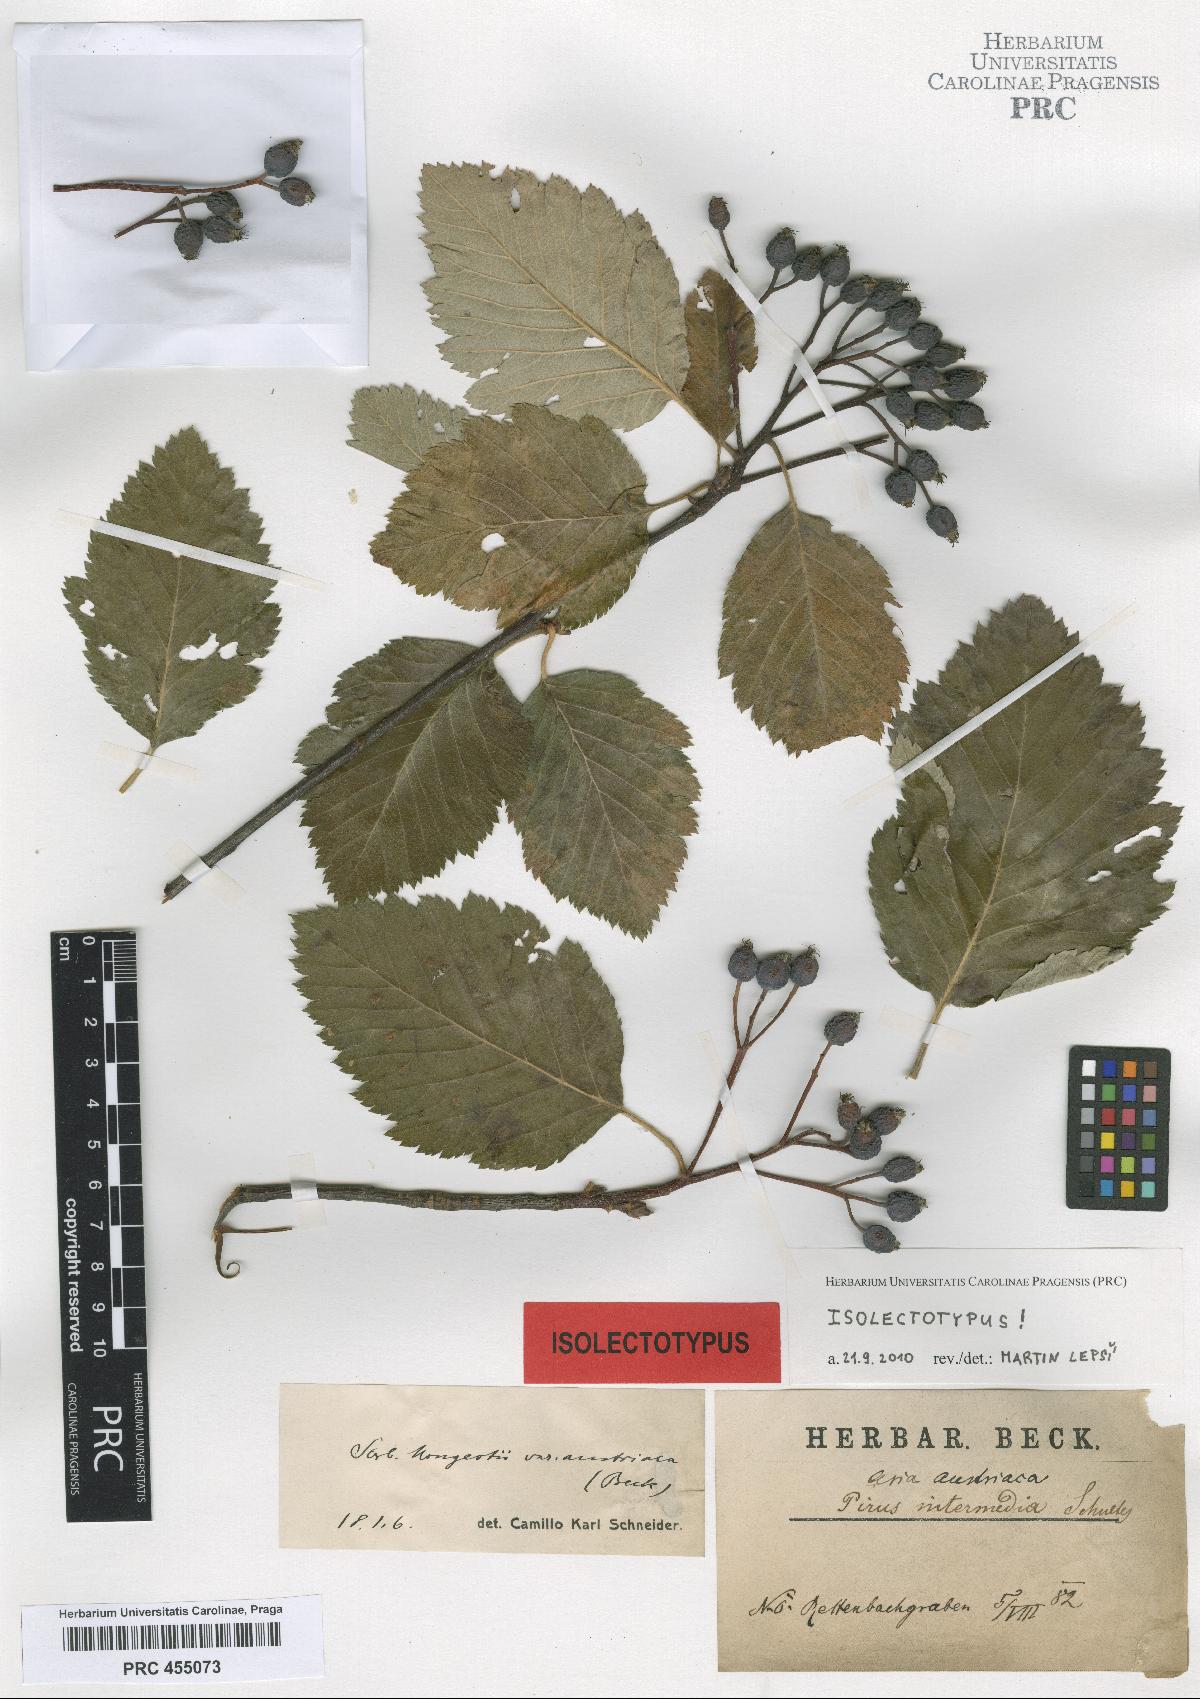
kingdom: Plantae
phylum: Tracheophyta
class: Magnoliopsida
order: Rosales
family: Rosaceae
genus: Hedlundia
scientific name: Hedlundia austriaca
